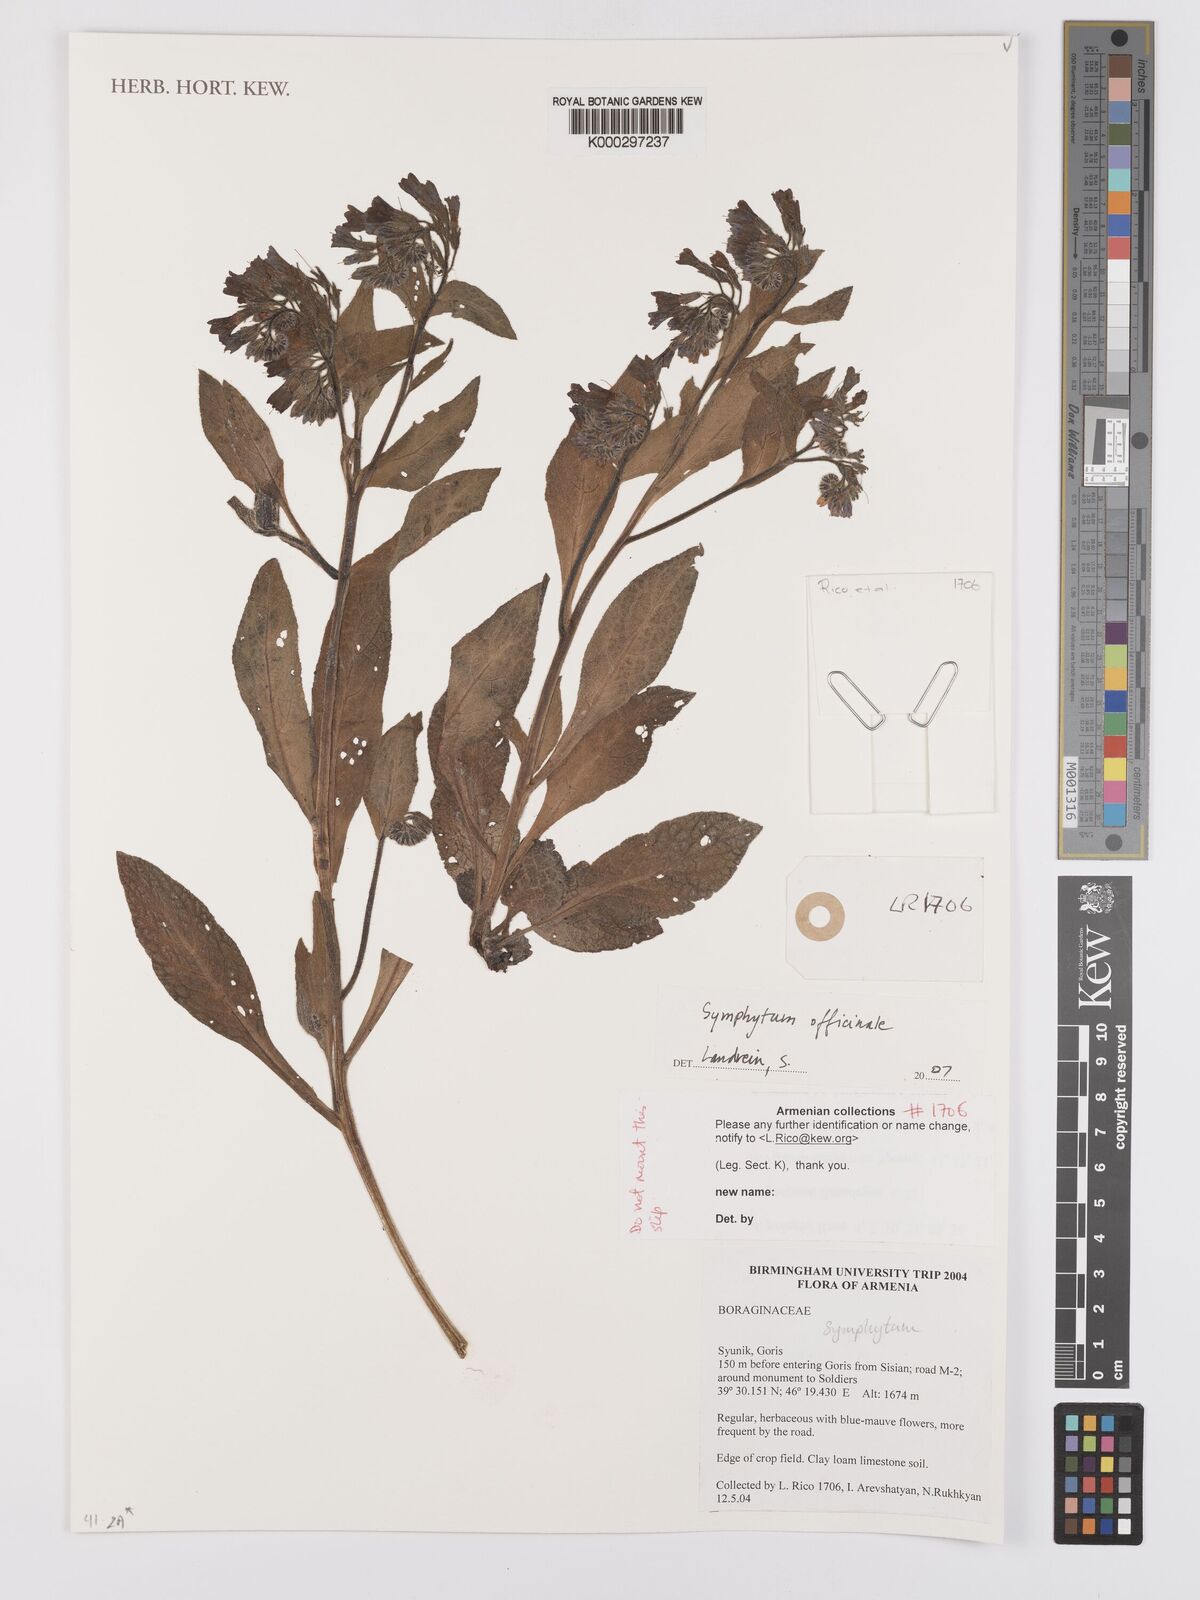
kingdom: Plantae
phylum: Tracheophyta
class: Magnoliopsida
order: Boraginales
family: Boraginaceae
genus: Symphytum
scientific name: Symphytum
